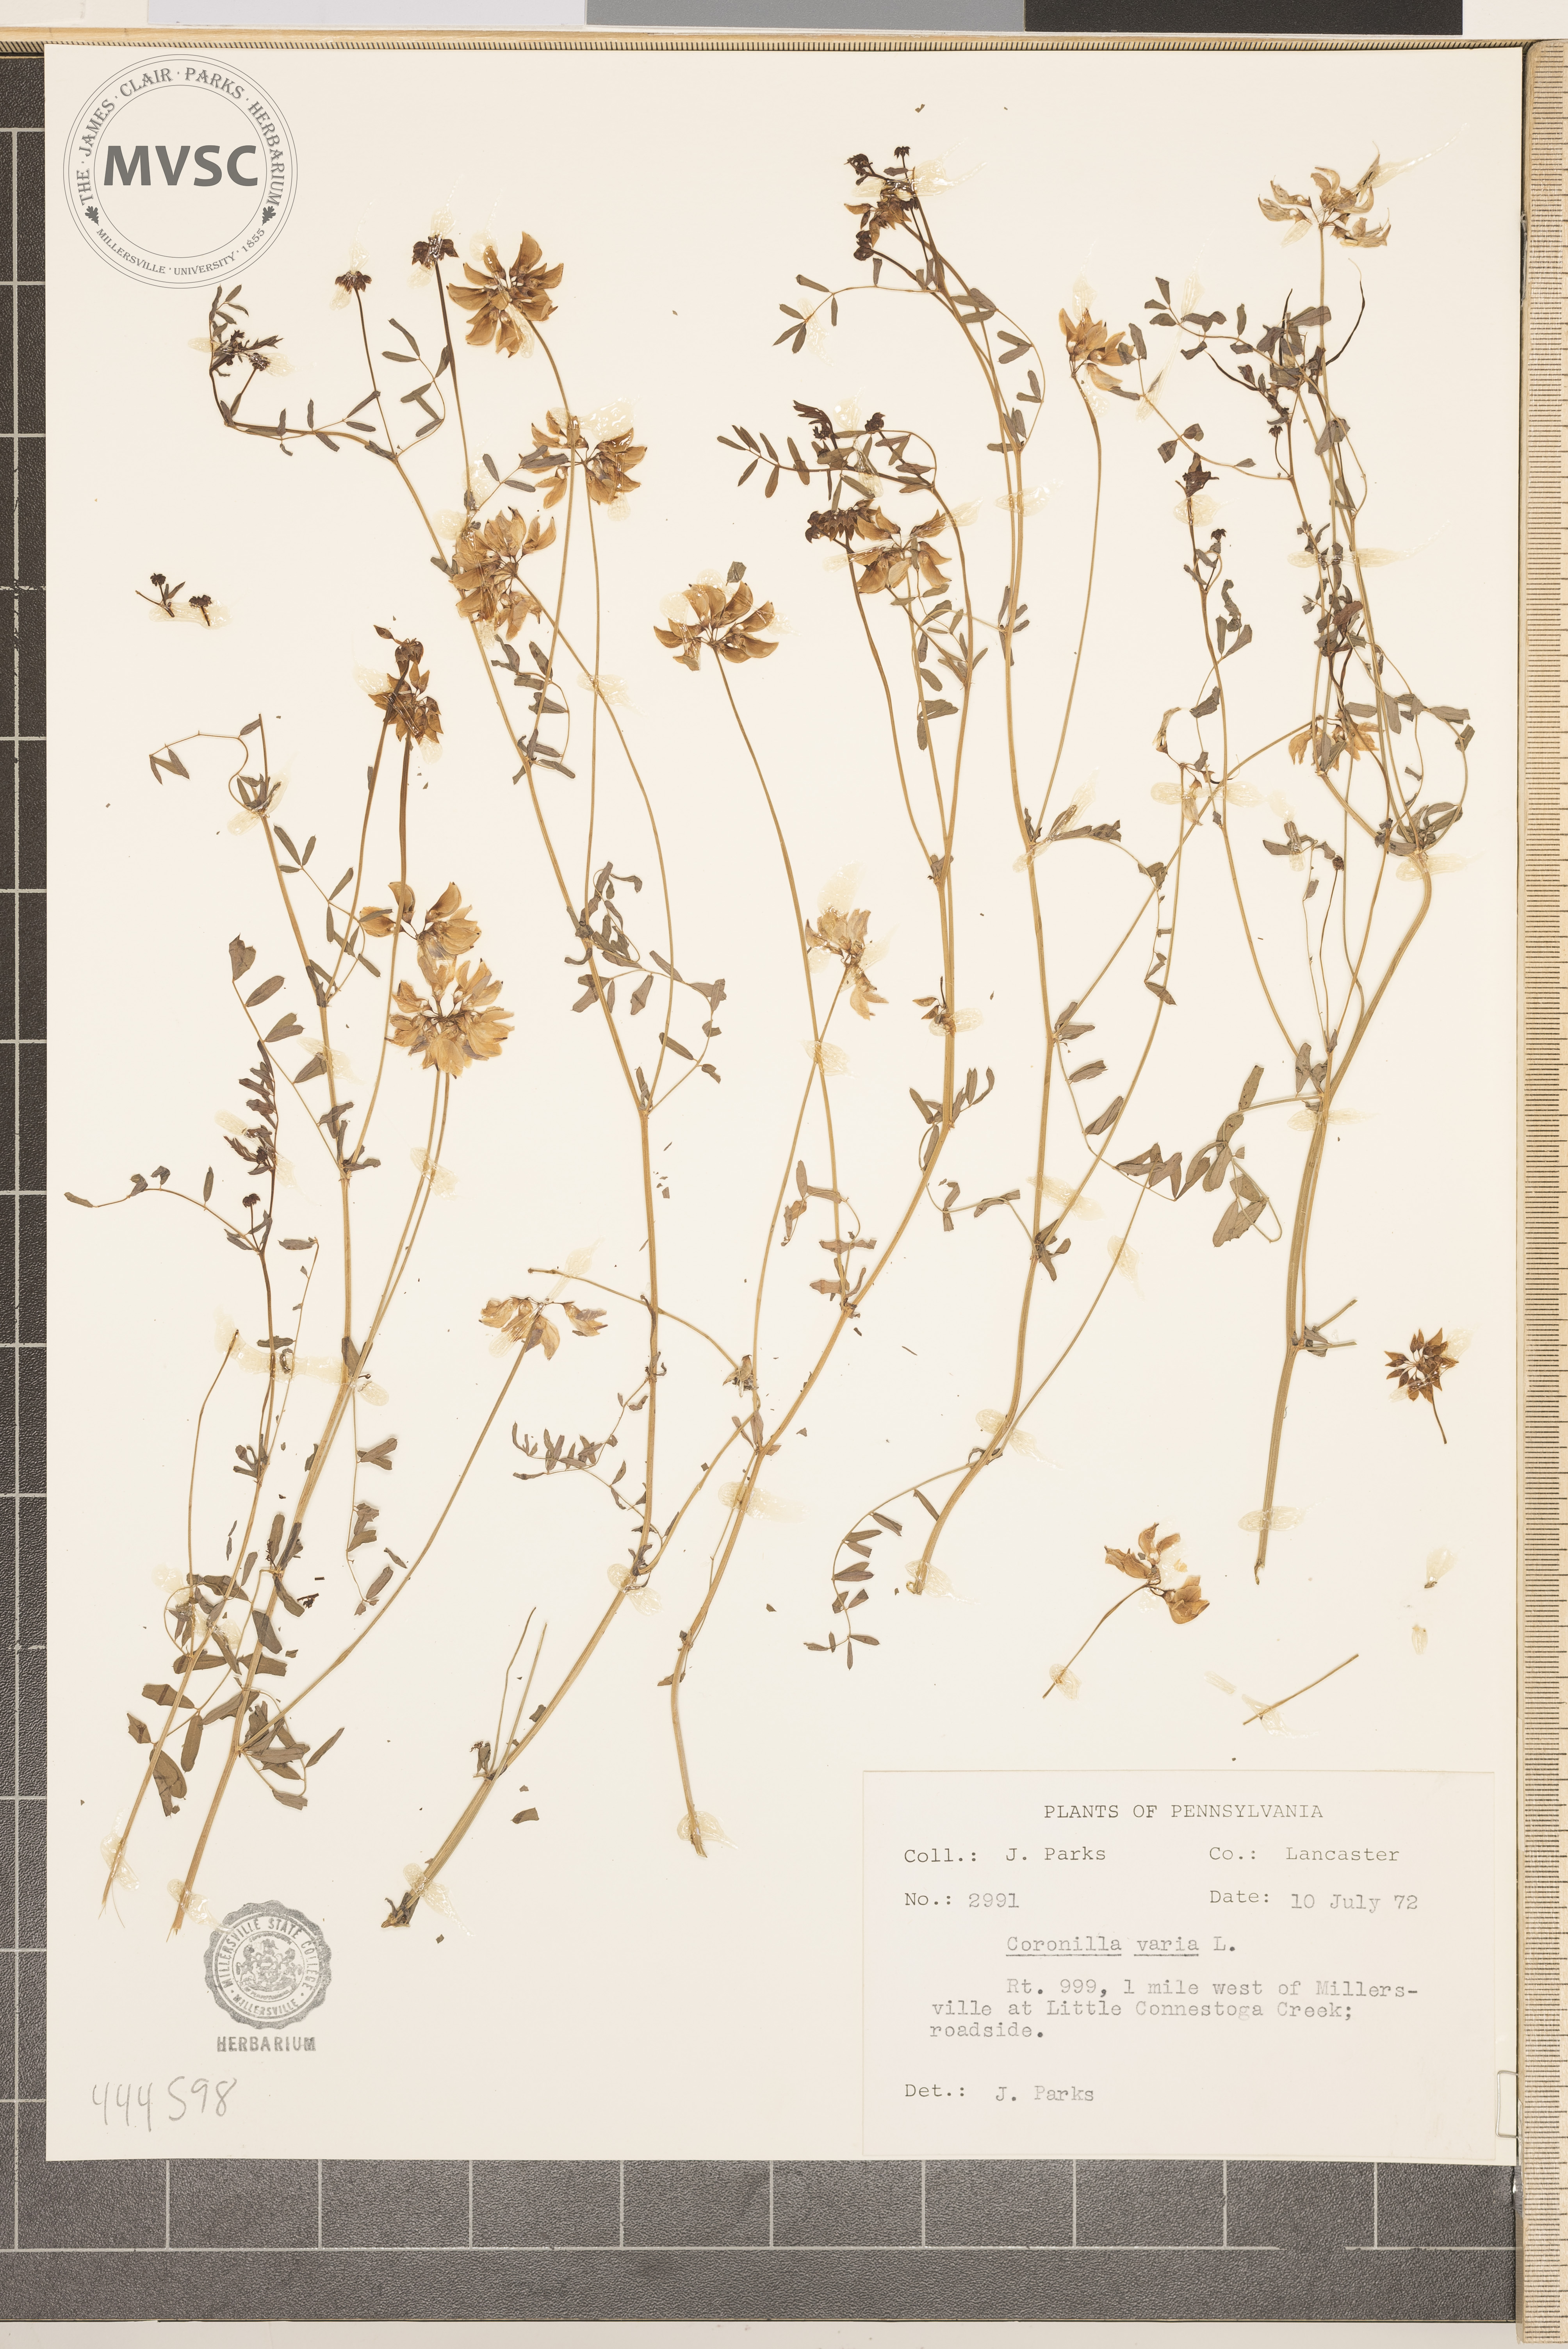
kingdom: Plantae
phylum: Tracheophyta
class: Magnoliopsida
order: Fabales
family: Fabaceae
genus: Coronilla
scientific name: Coronilla varia
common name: Crownvetch
